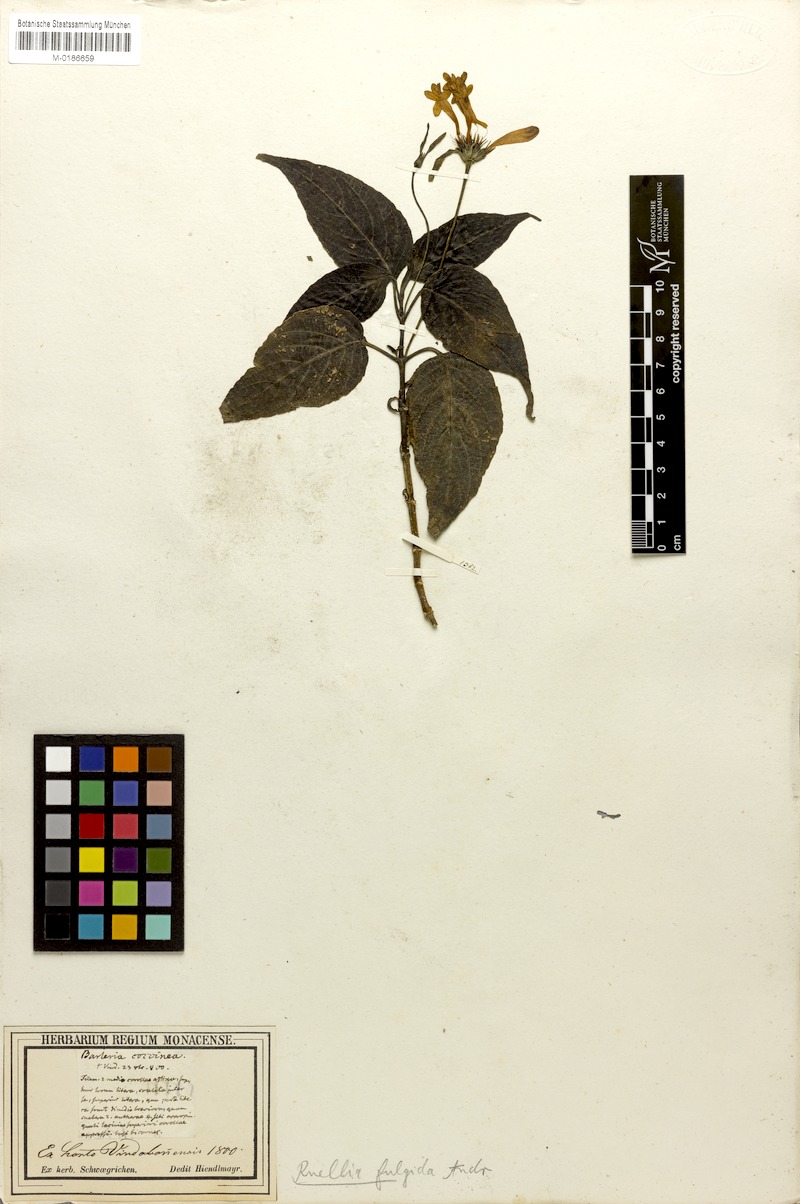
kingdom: Plantae
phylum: Tracheophyta
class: Magnoliopsida
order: Lamiales
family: Acanthaceae
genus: Ruellia
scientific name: Ruellia fulgida
